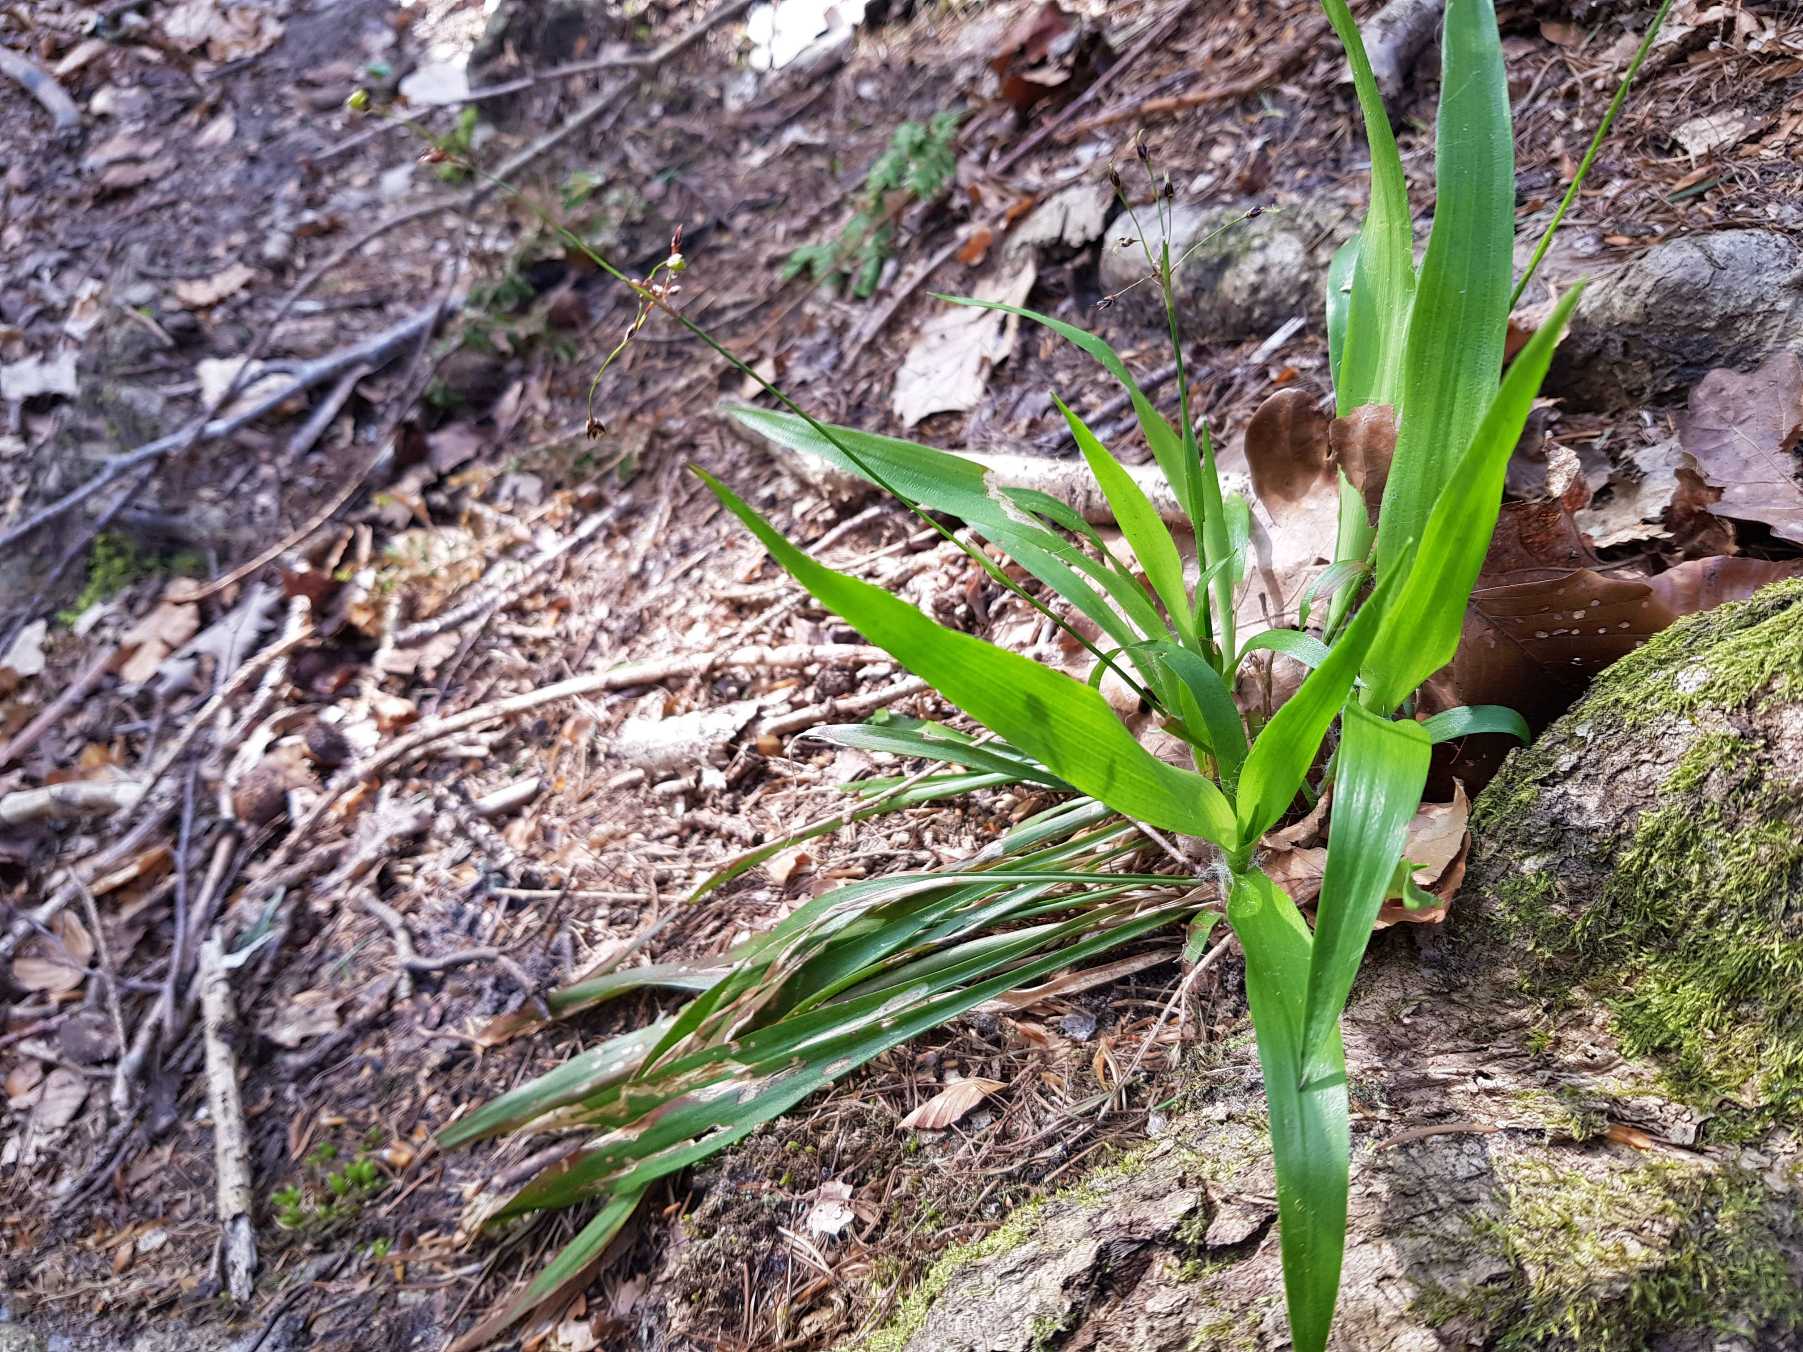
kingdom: Plantae
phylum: Tracheophyta
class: Liliopsida
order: Poales
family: Juncaceae
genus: Luzula
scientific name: Luzula pilosa
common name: Håret frytle
